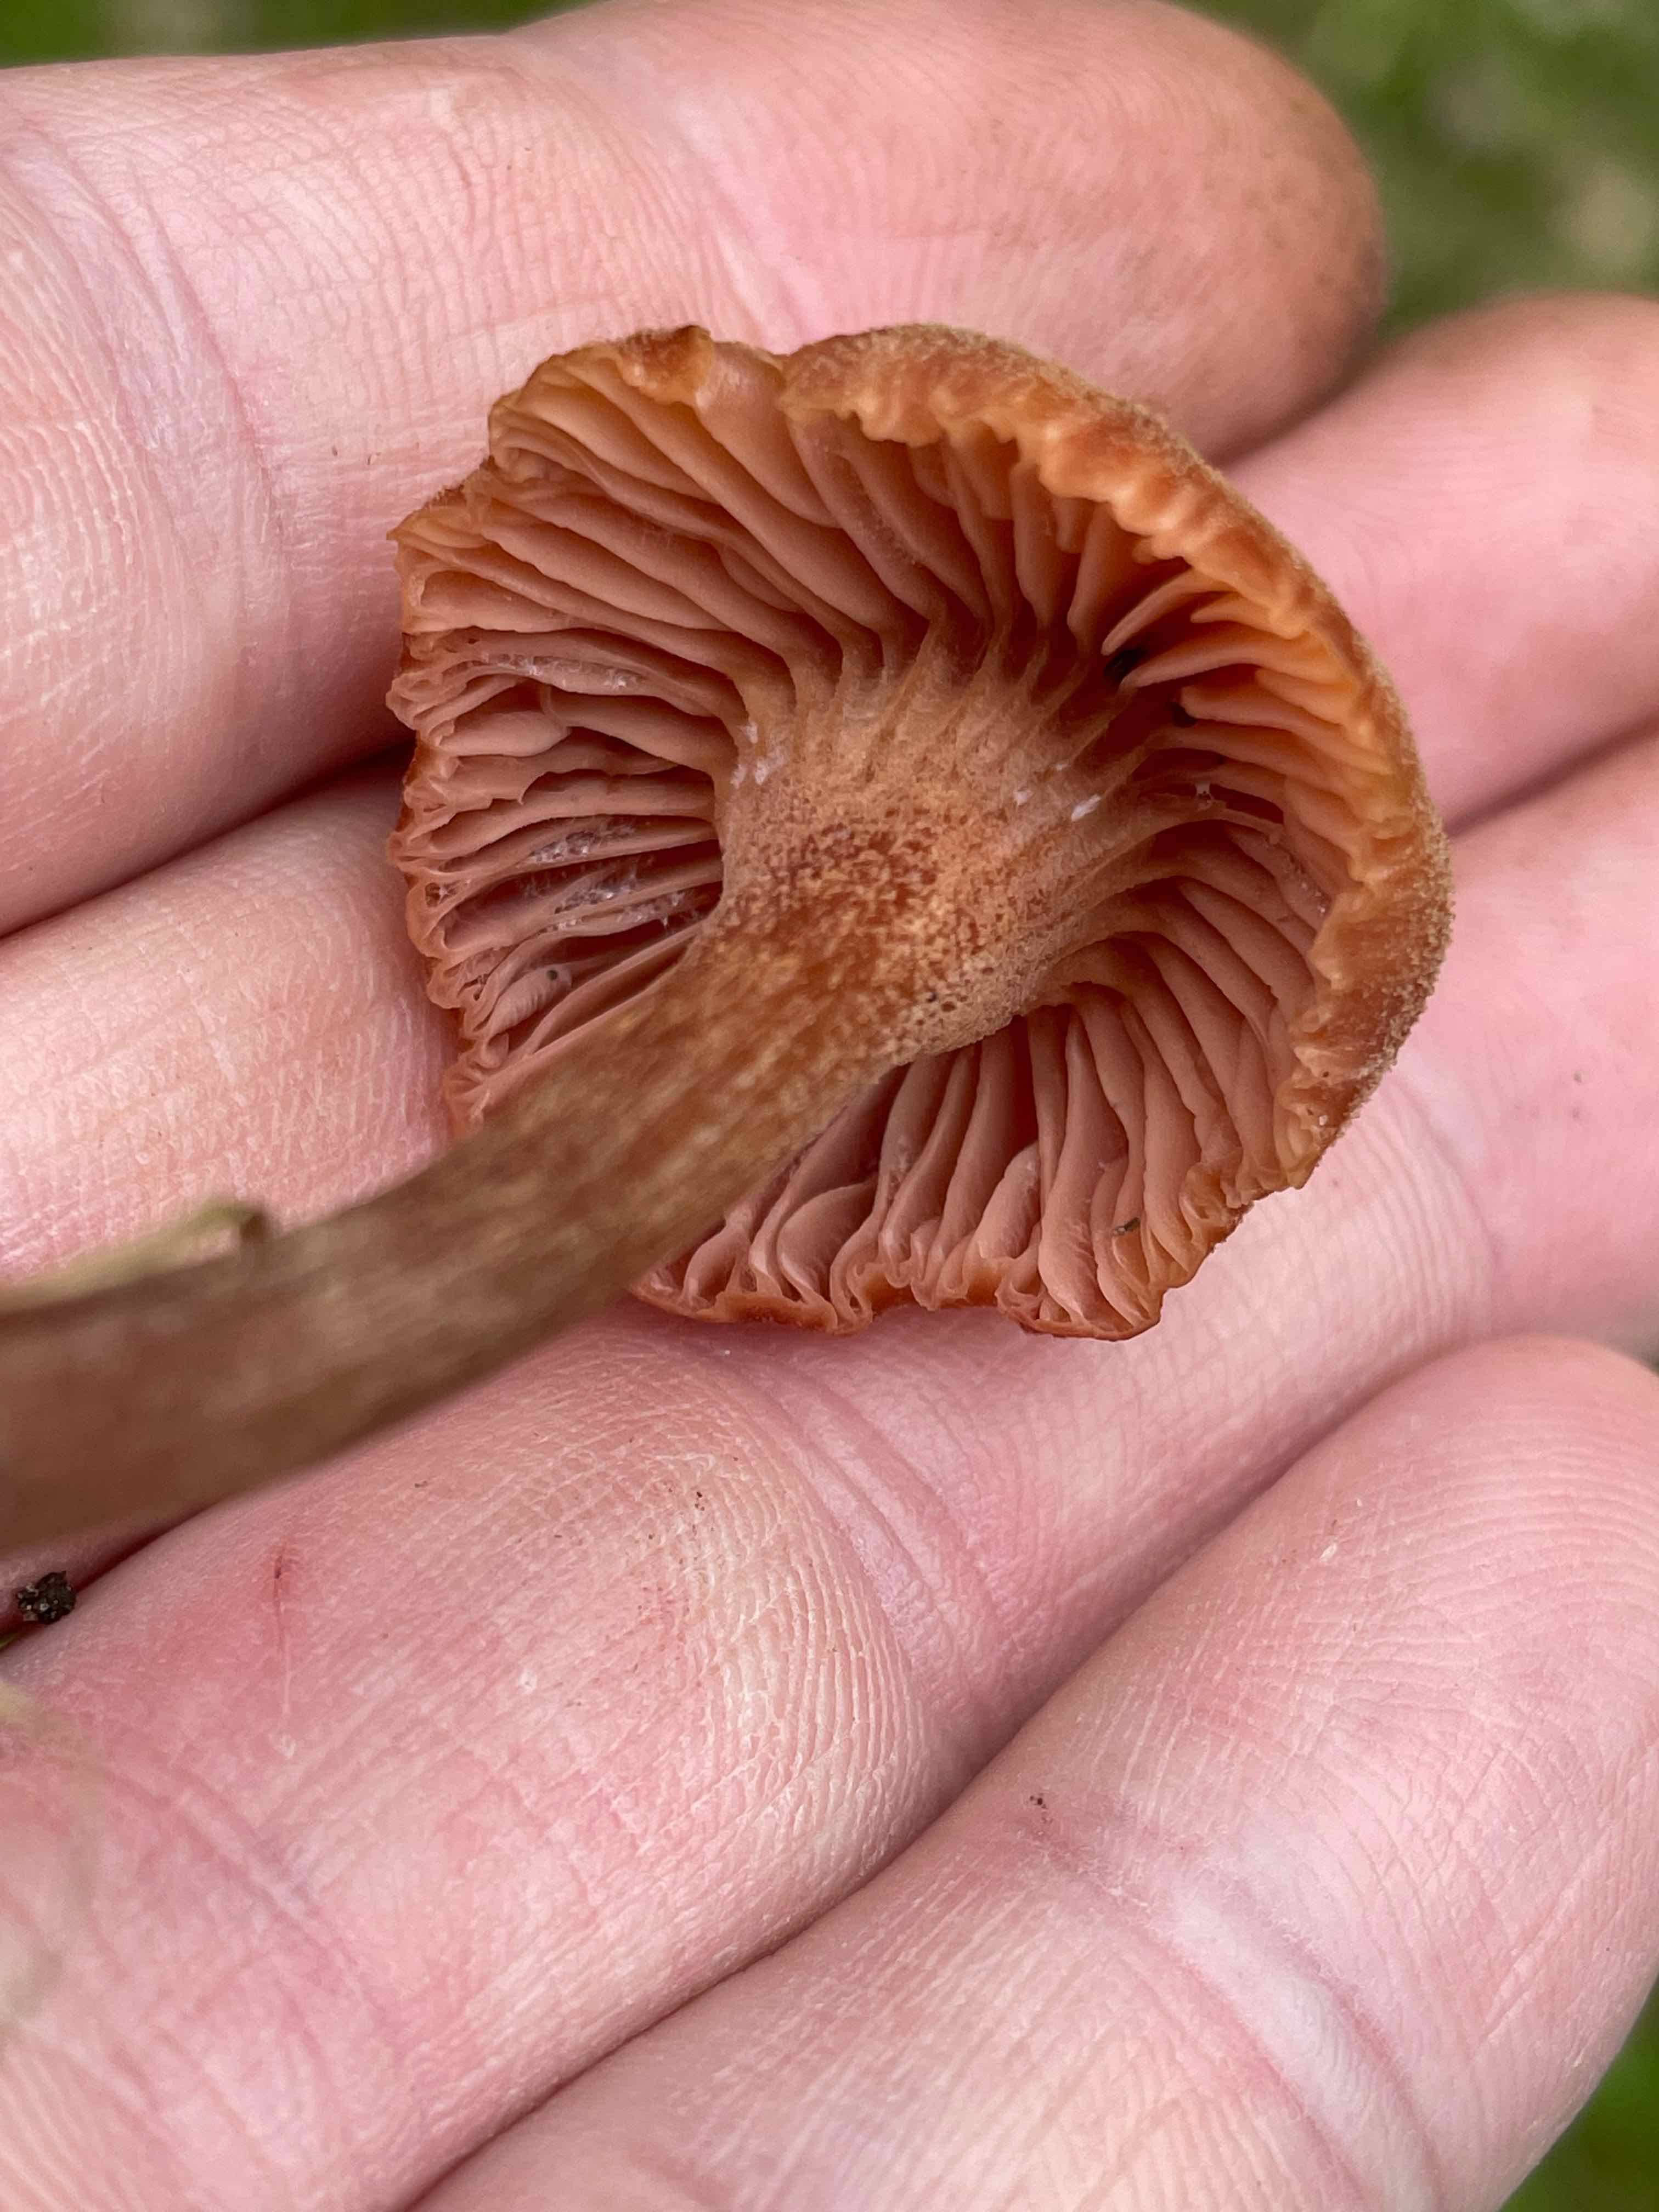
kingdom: Fungi
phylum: Basidiomycota
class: Agaricomycetes
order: Agaricales
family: Hydnangiaceae
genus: Laccaria
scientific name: Laccaria proxima
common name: stor ametysthat
